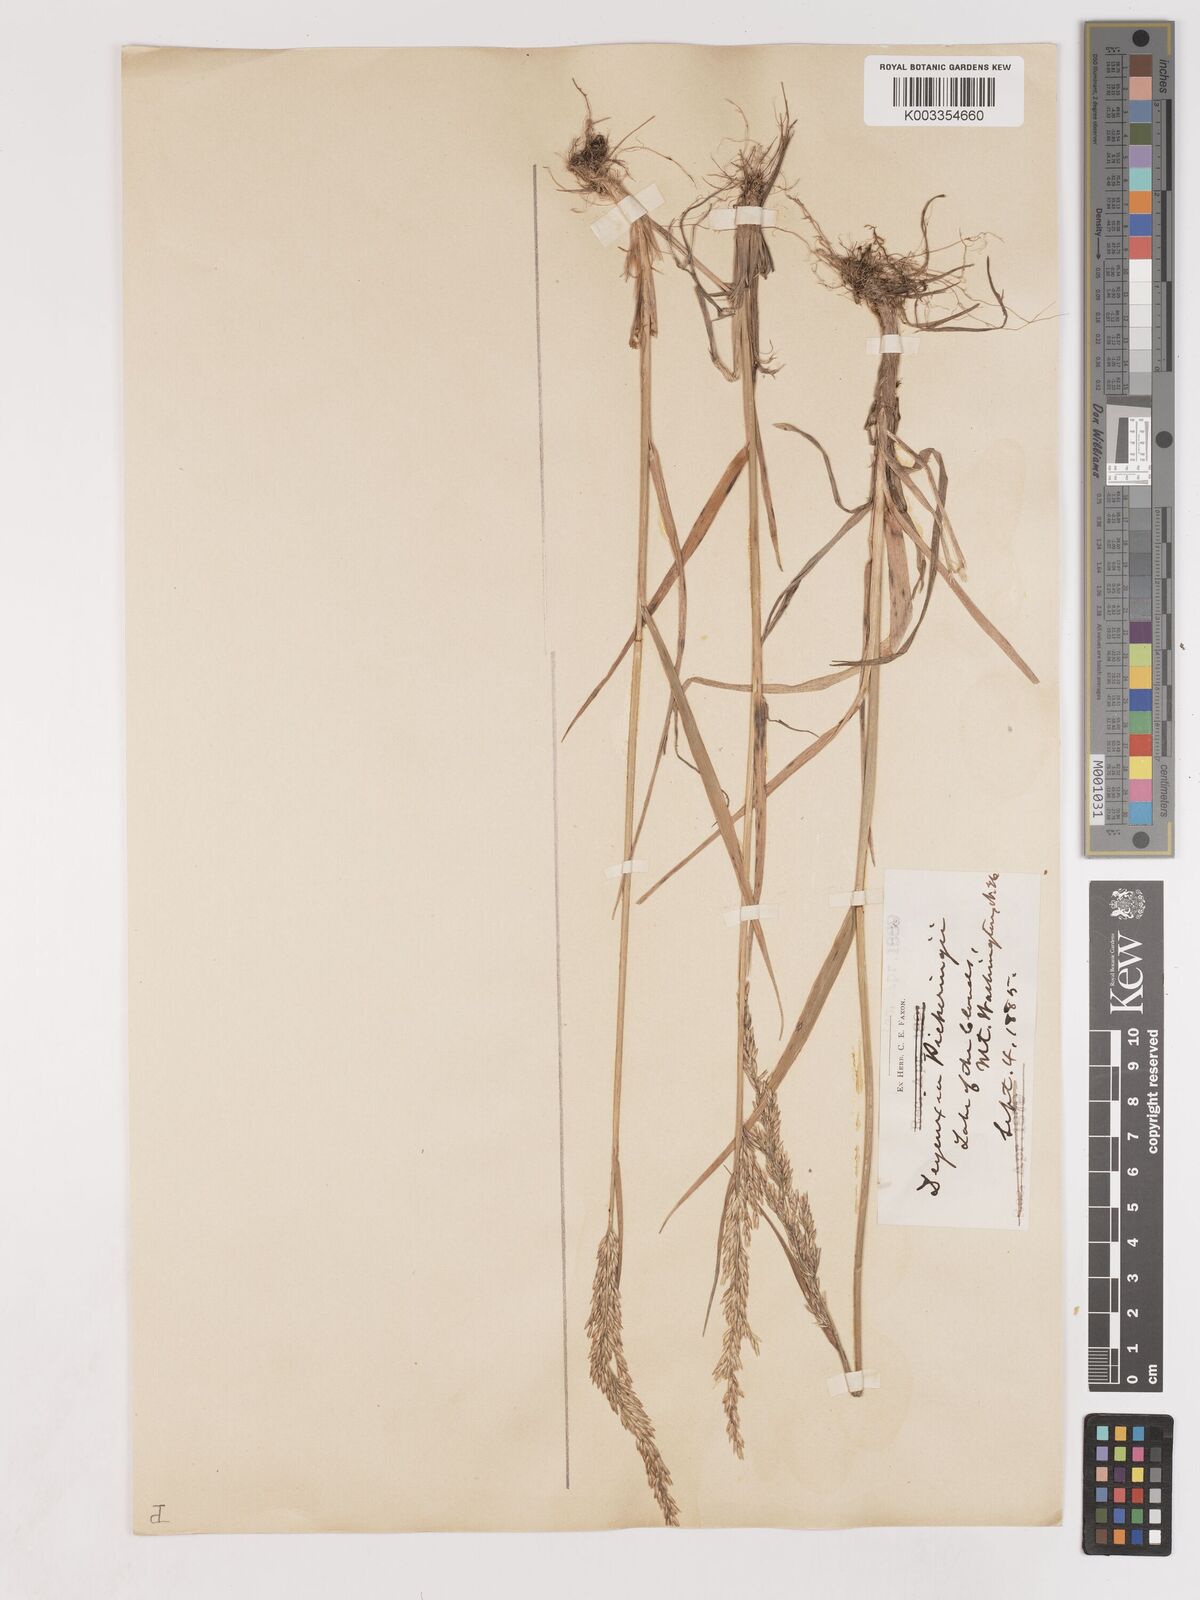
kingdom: Plantae
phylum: Tracheophyta
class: Liliopsida
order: Poales
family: Poaceae
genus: Calamagrostis
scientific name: Calamagrostis pickeringii
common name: Pickering's reed bentgrass
